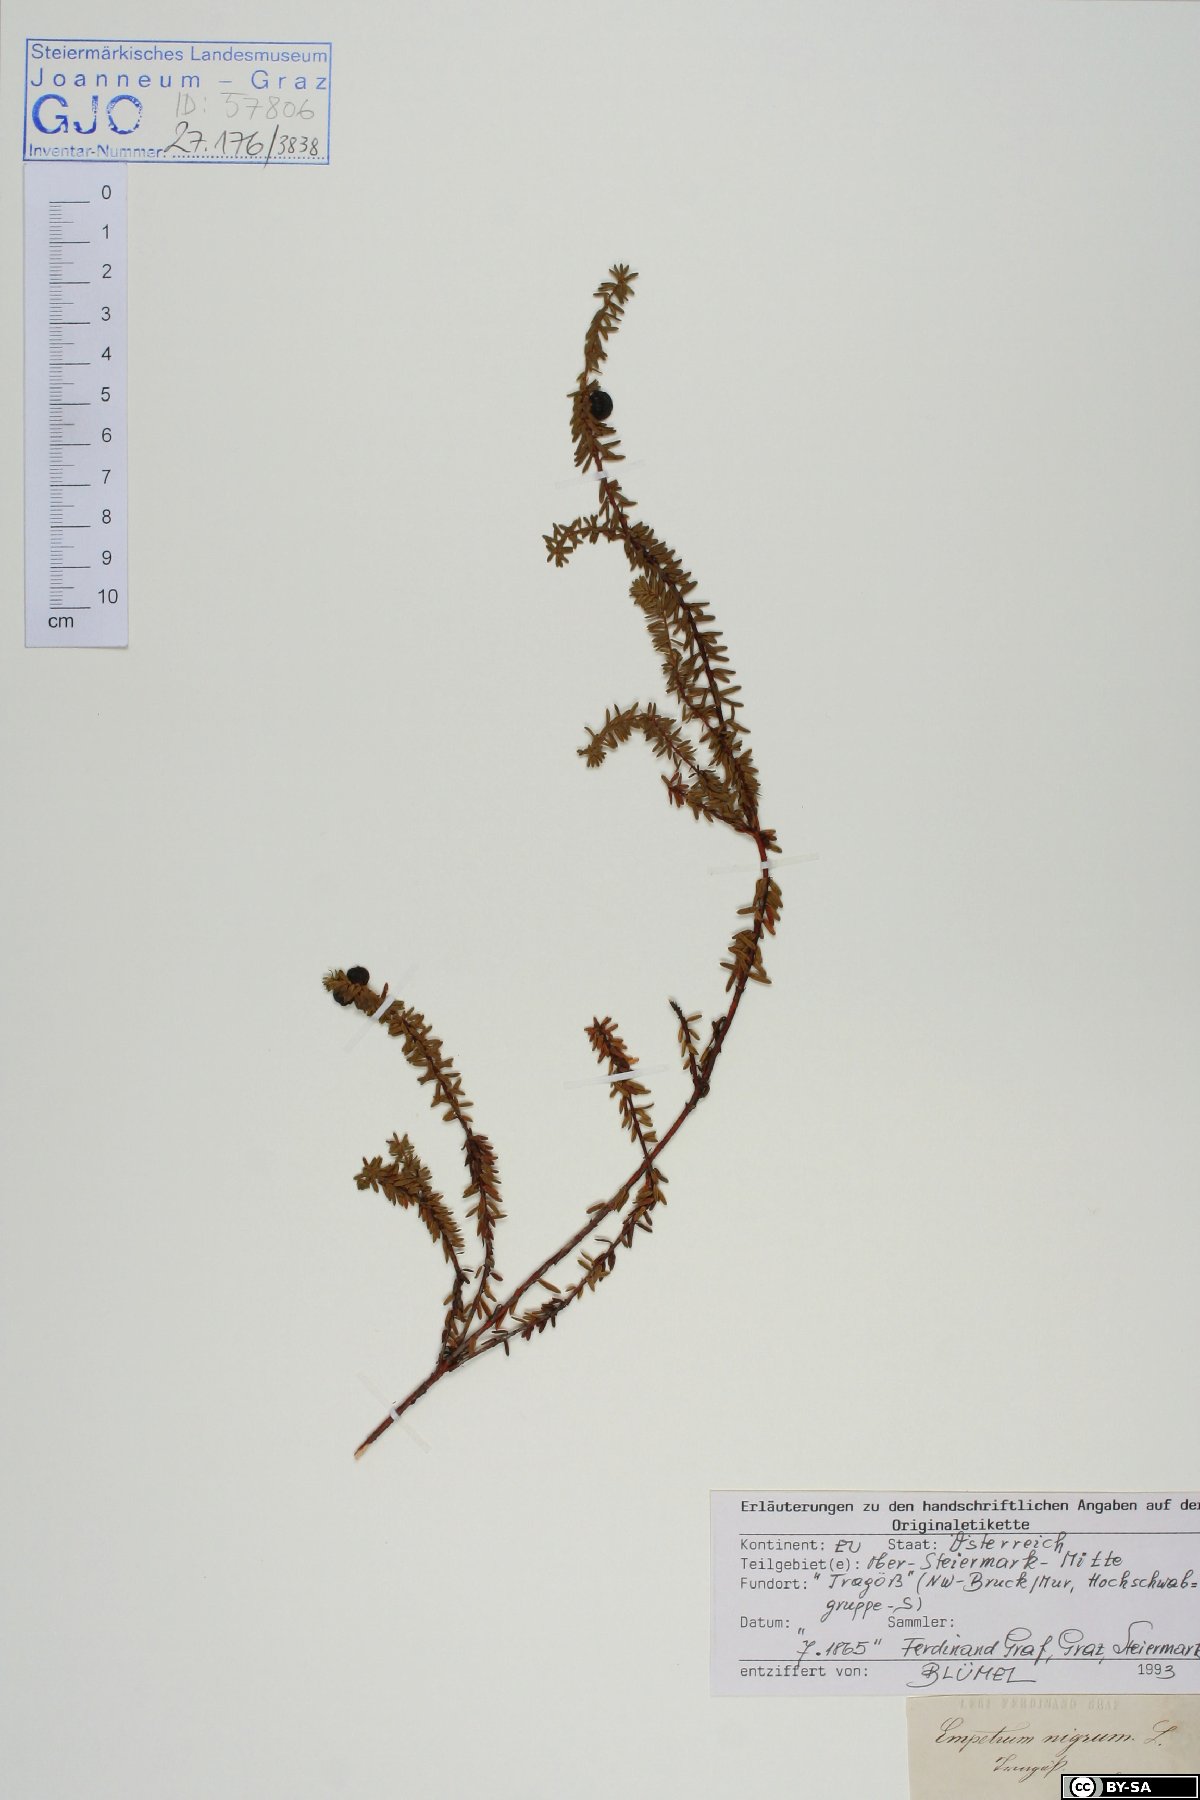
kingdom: Plantae
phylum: Tracheophyta
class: Magnoliopsida
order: Ericales
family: Ericaceae
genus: Empetrum
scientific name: Empetrum nigrum
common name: Black crowberry
